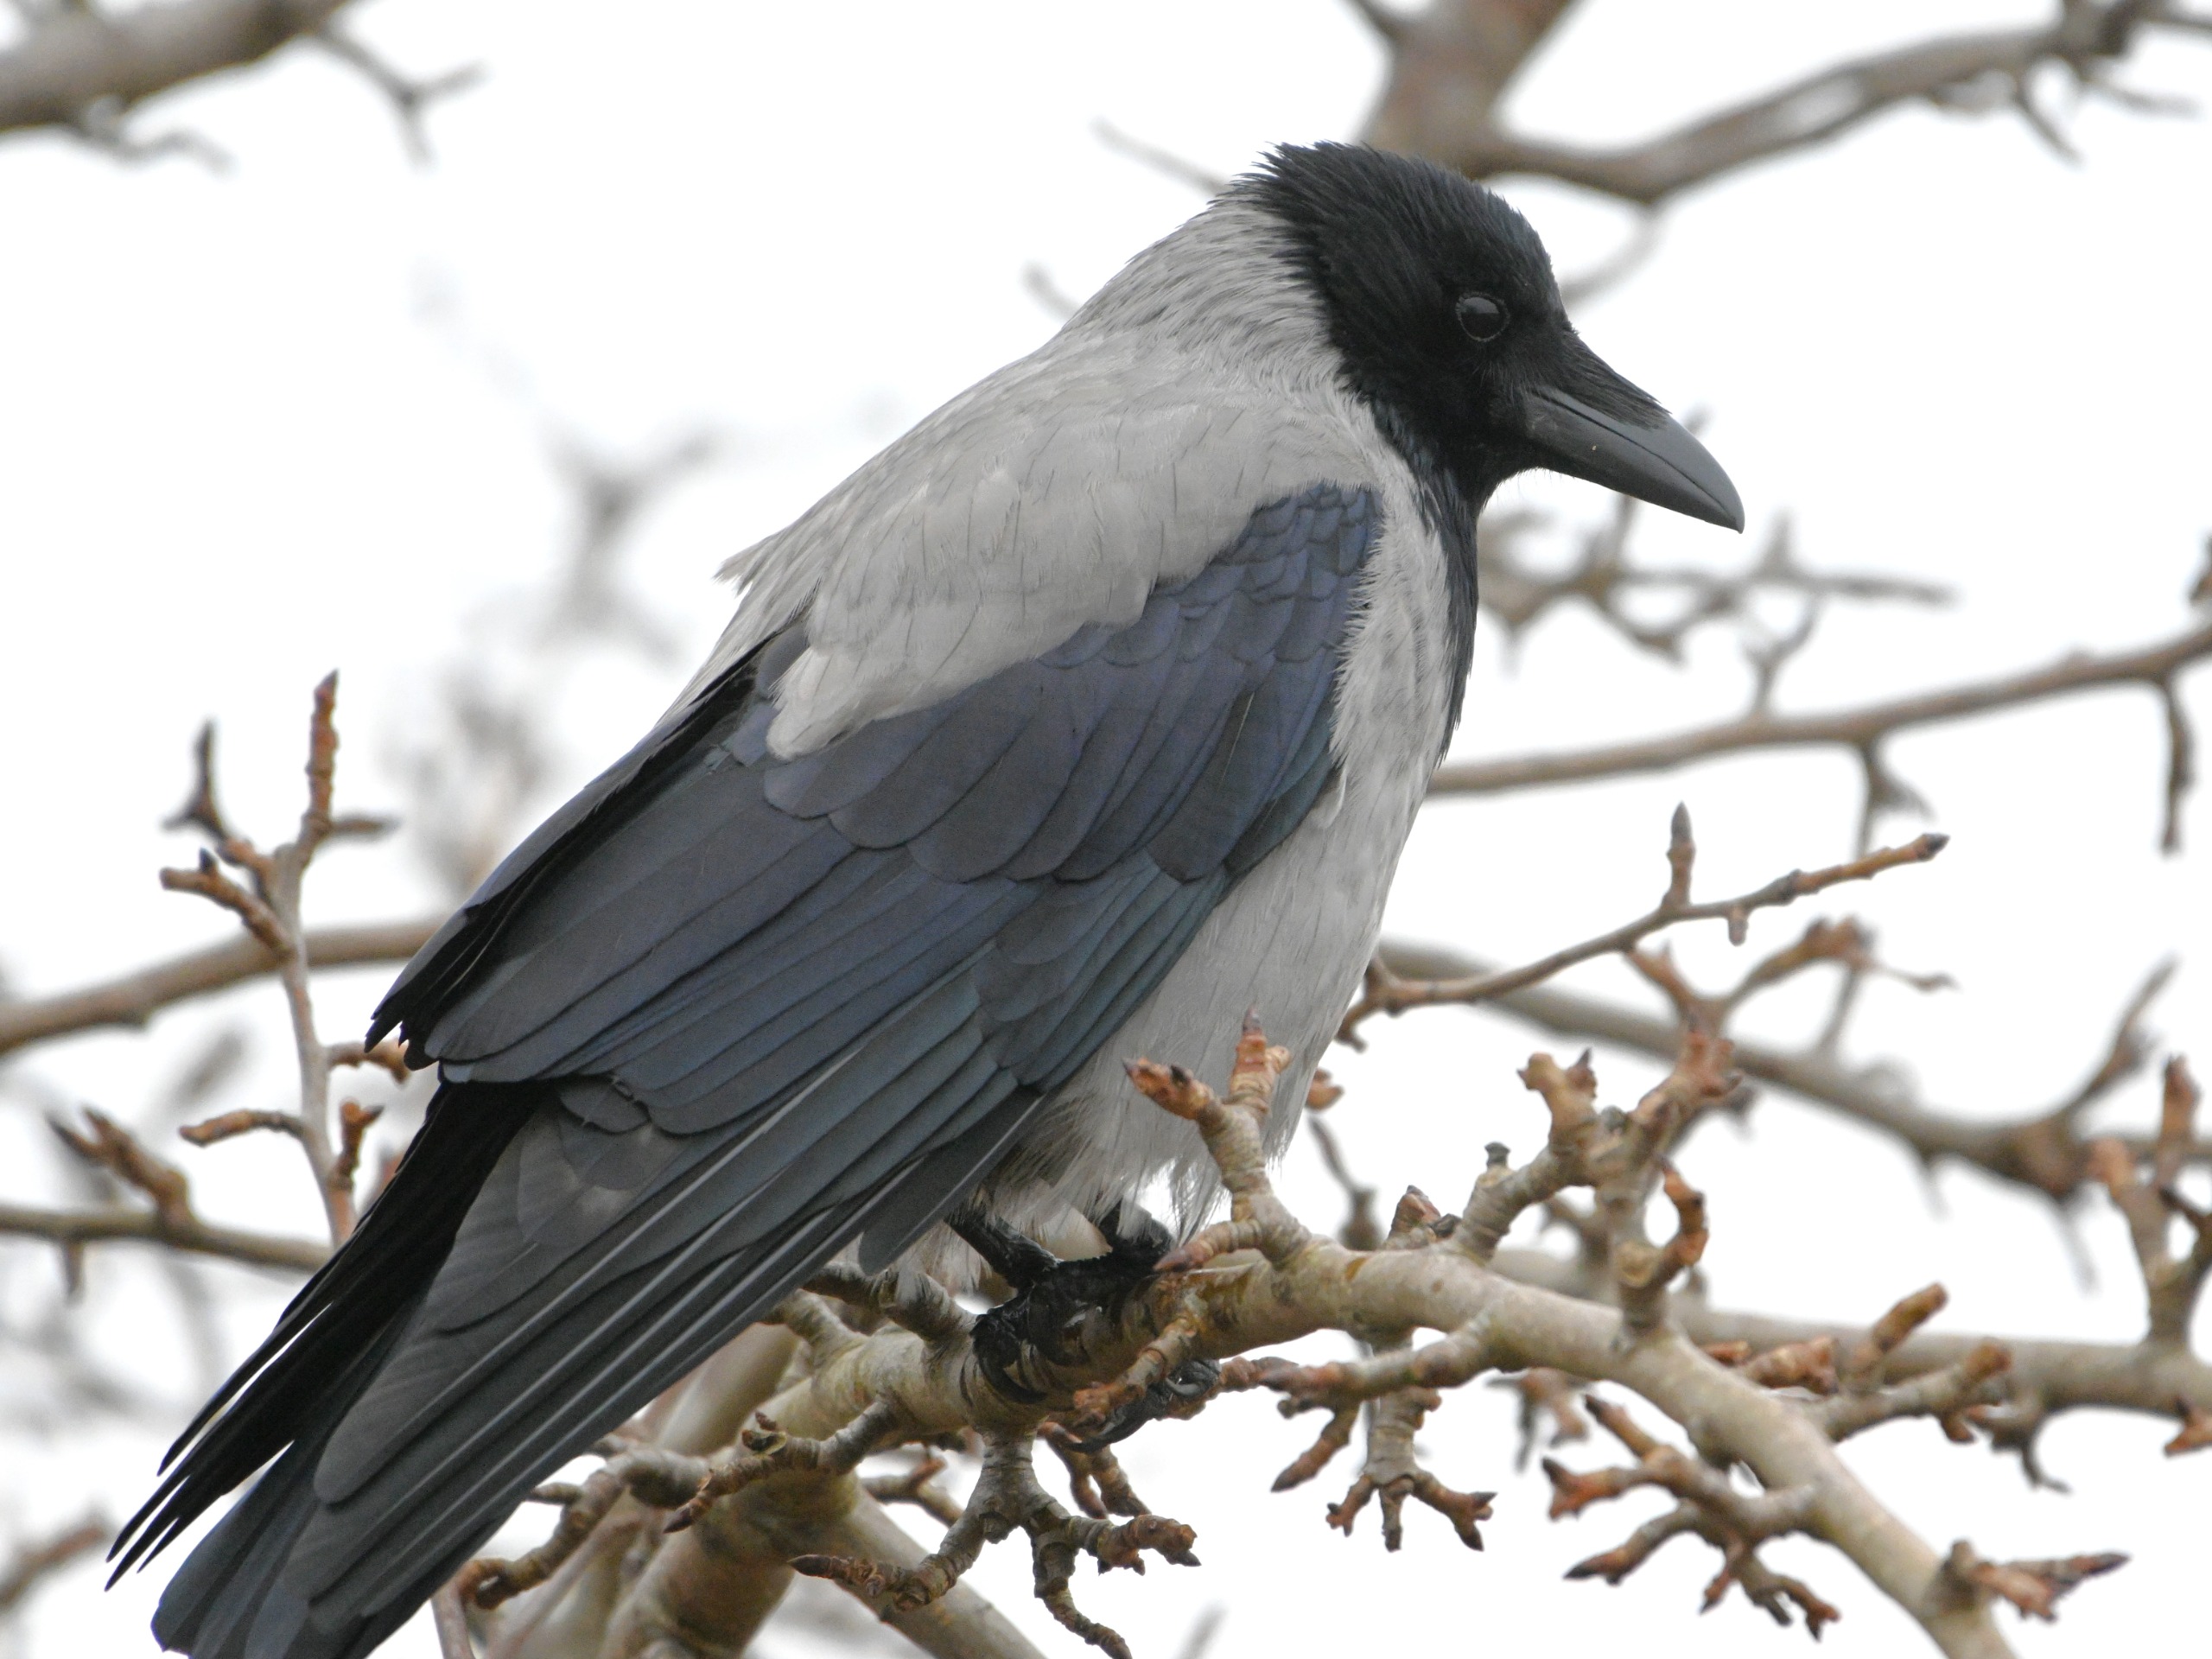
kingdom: Animalia
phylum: Chordata
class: Aves
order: Passeriformes
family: Corvidae
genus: Corvus
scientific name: Corvus cornix
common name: Gråkrage
